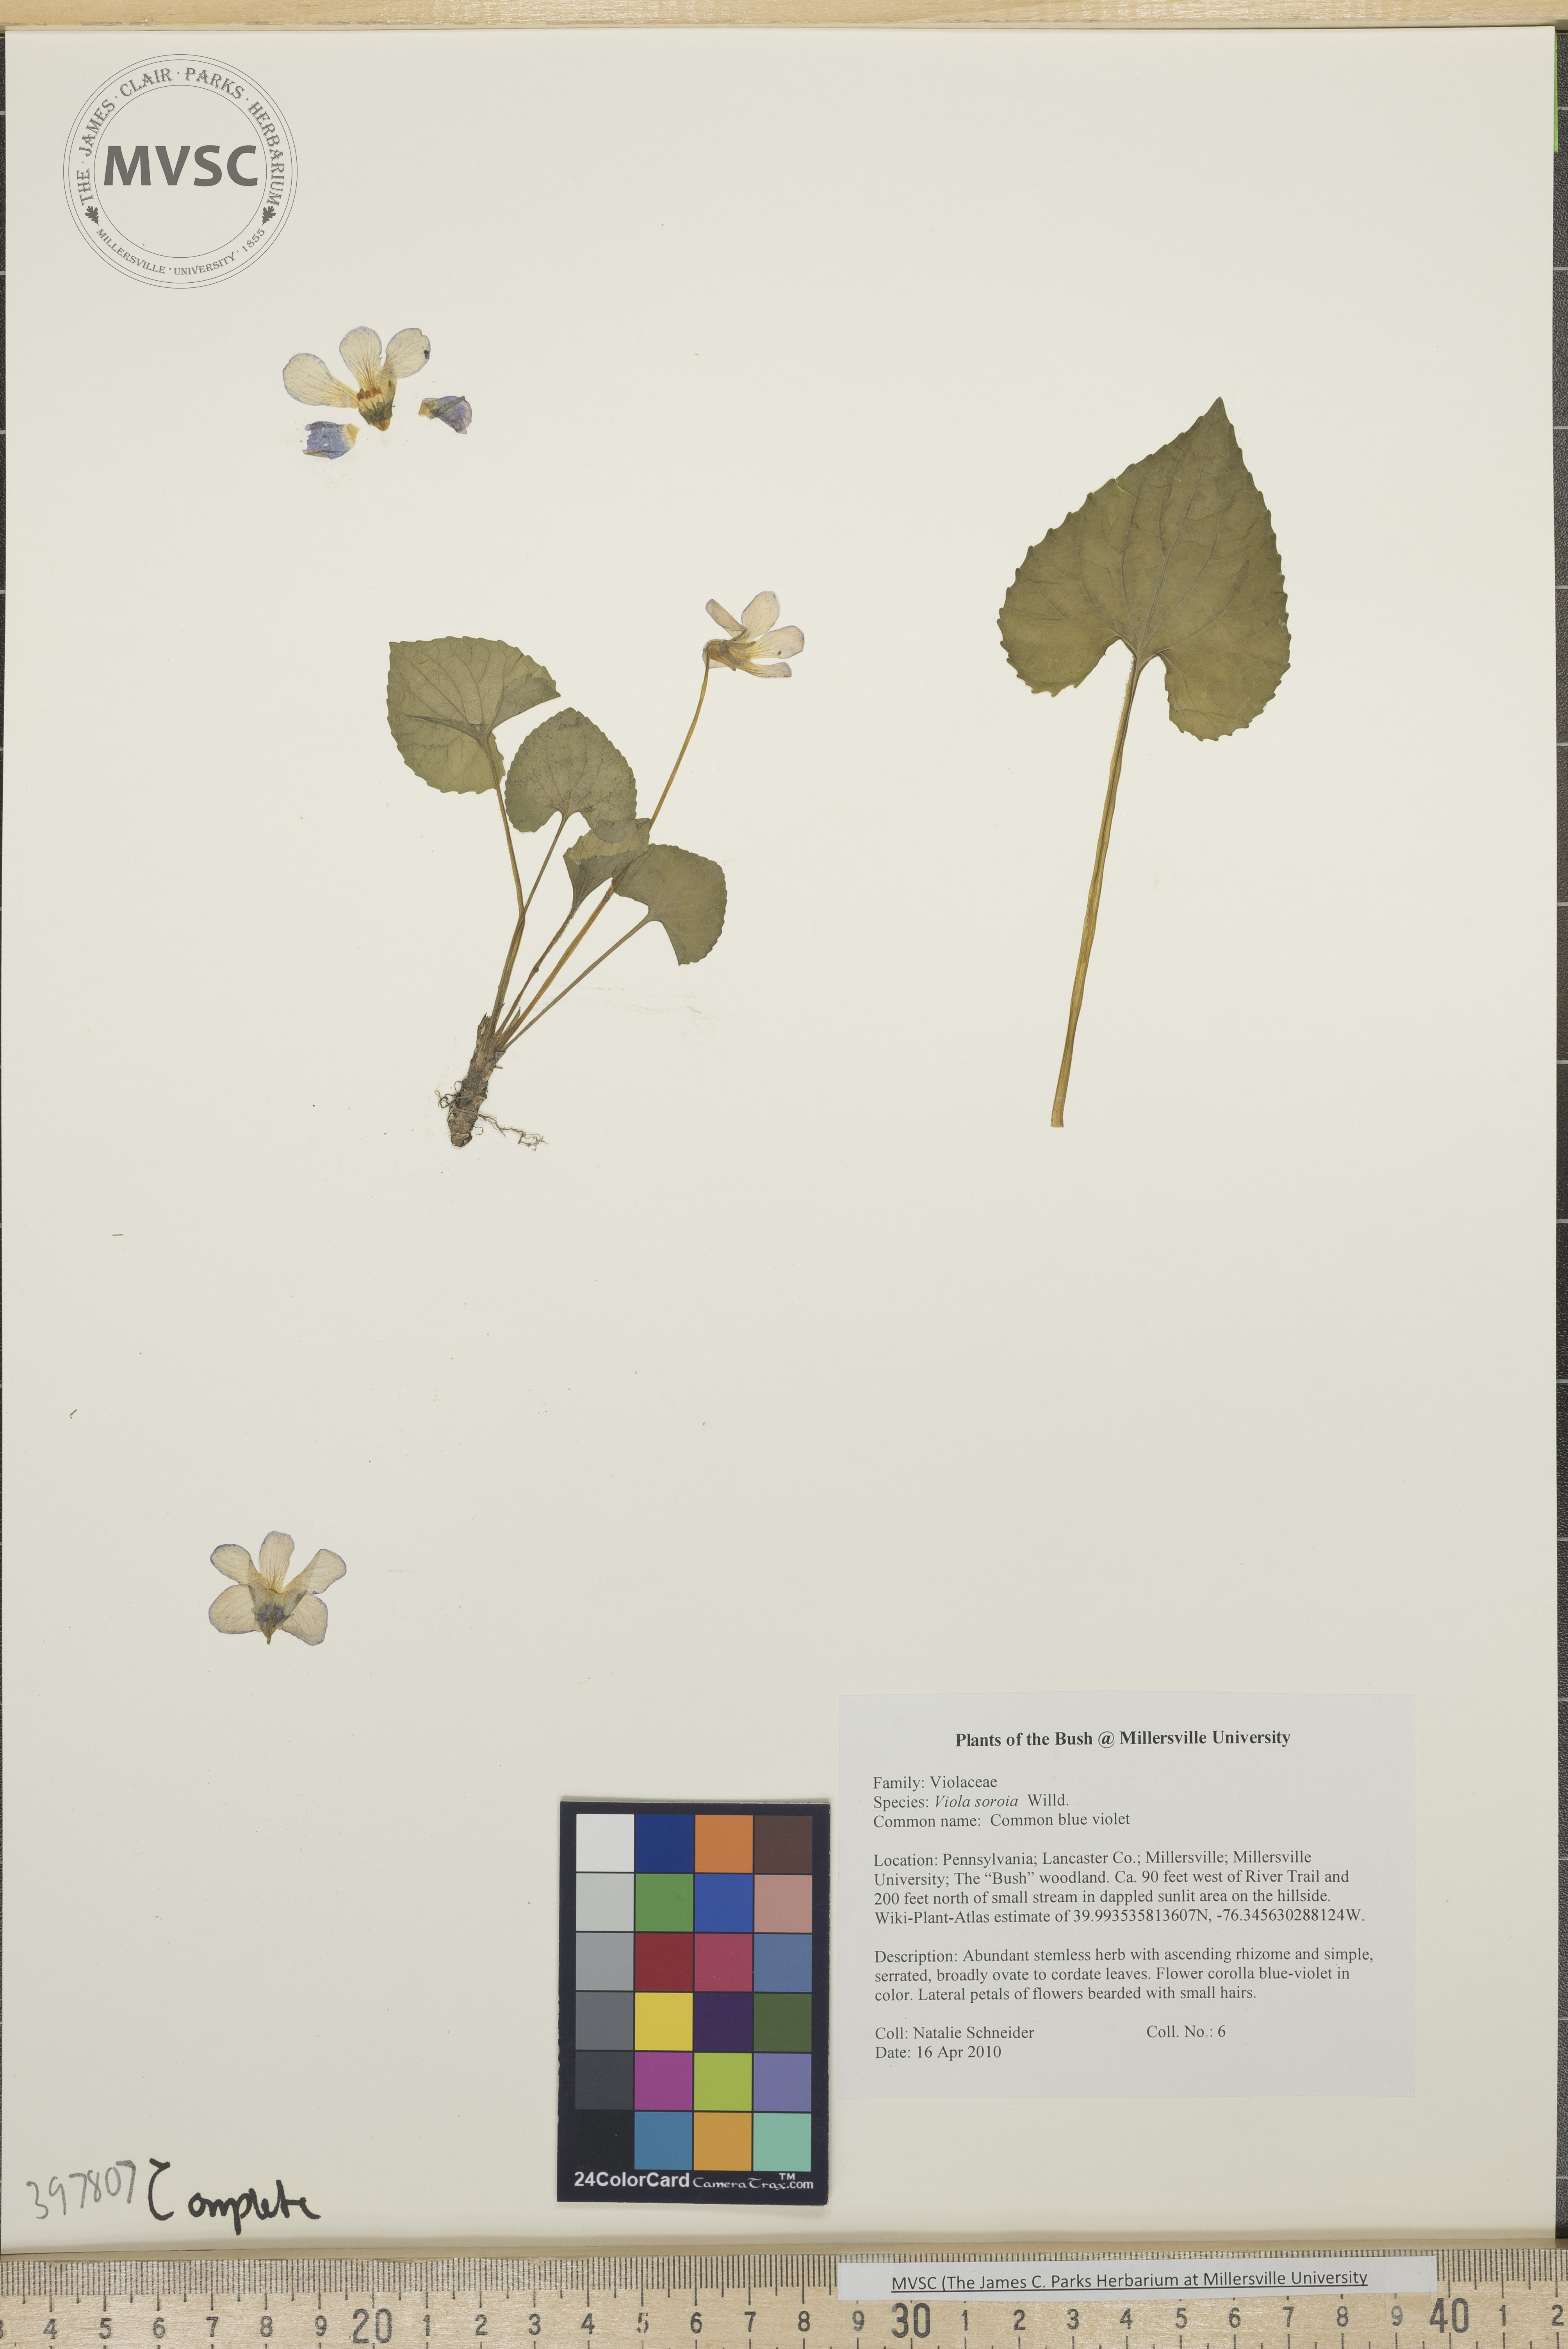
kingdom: Plantae
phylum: Tracheophyta
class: Magnoliopsida
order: Malpighiales
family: Violaceae
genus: Viola
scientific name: Viola sororia
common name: Common blue violet
